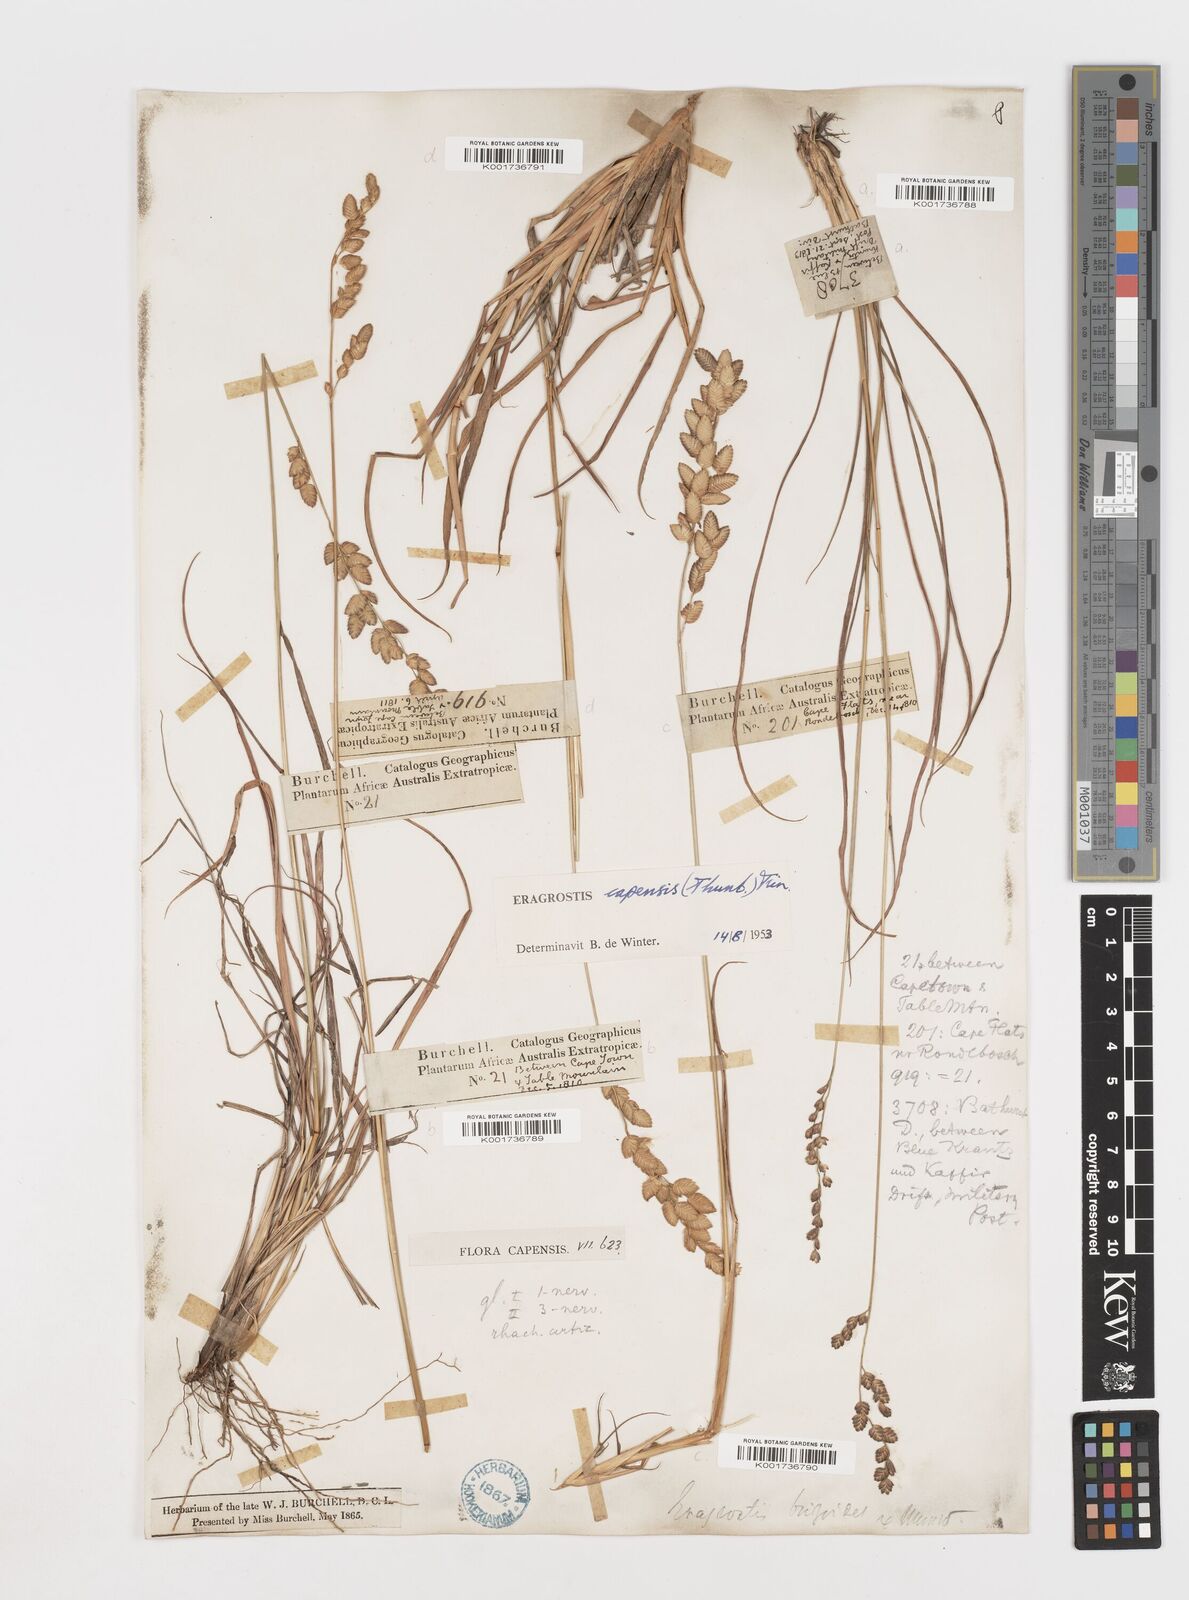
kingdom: Plantae
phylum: Tracheophyta
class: Liliopsida
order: Poales
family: Poaceae
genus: Eragrostis
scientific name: Eragrostis capensis
